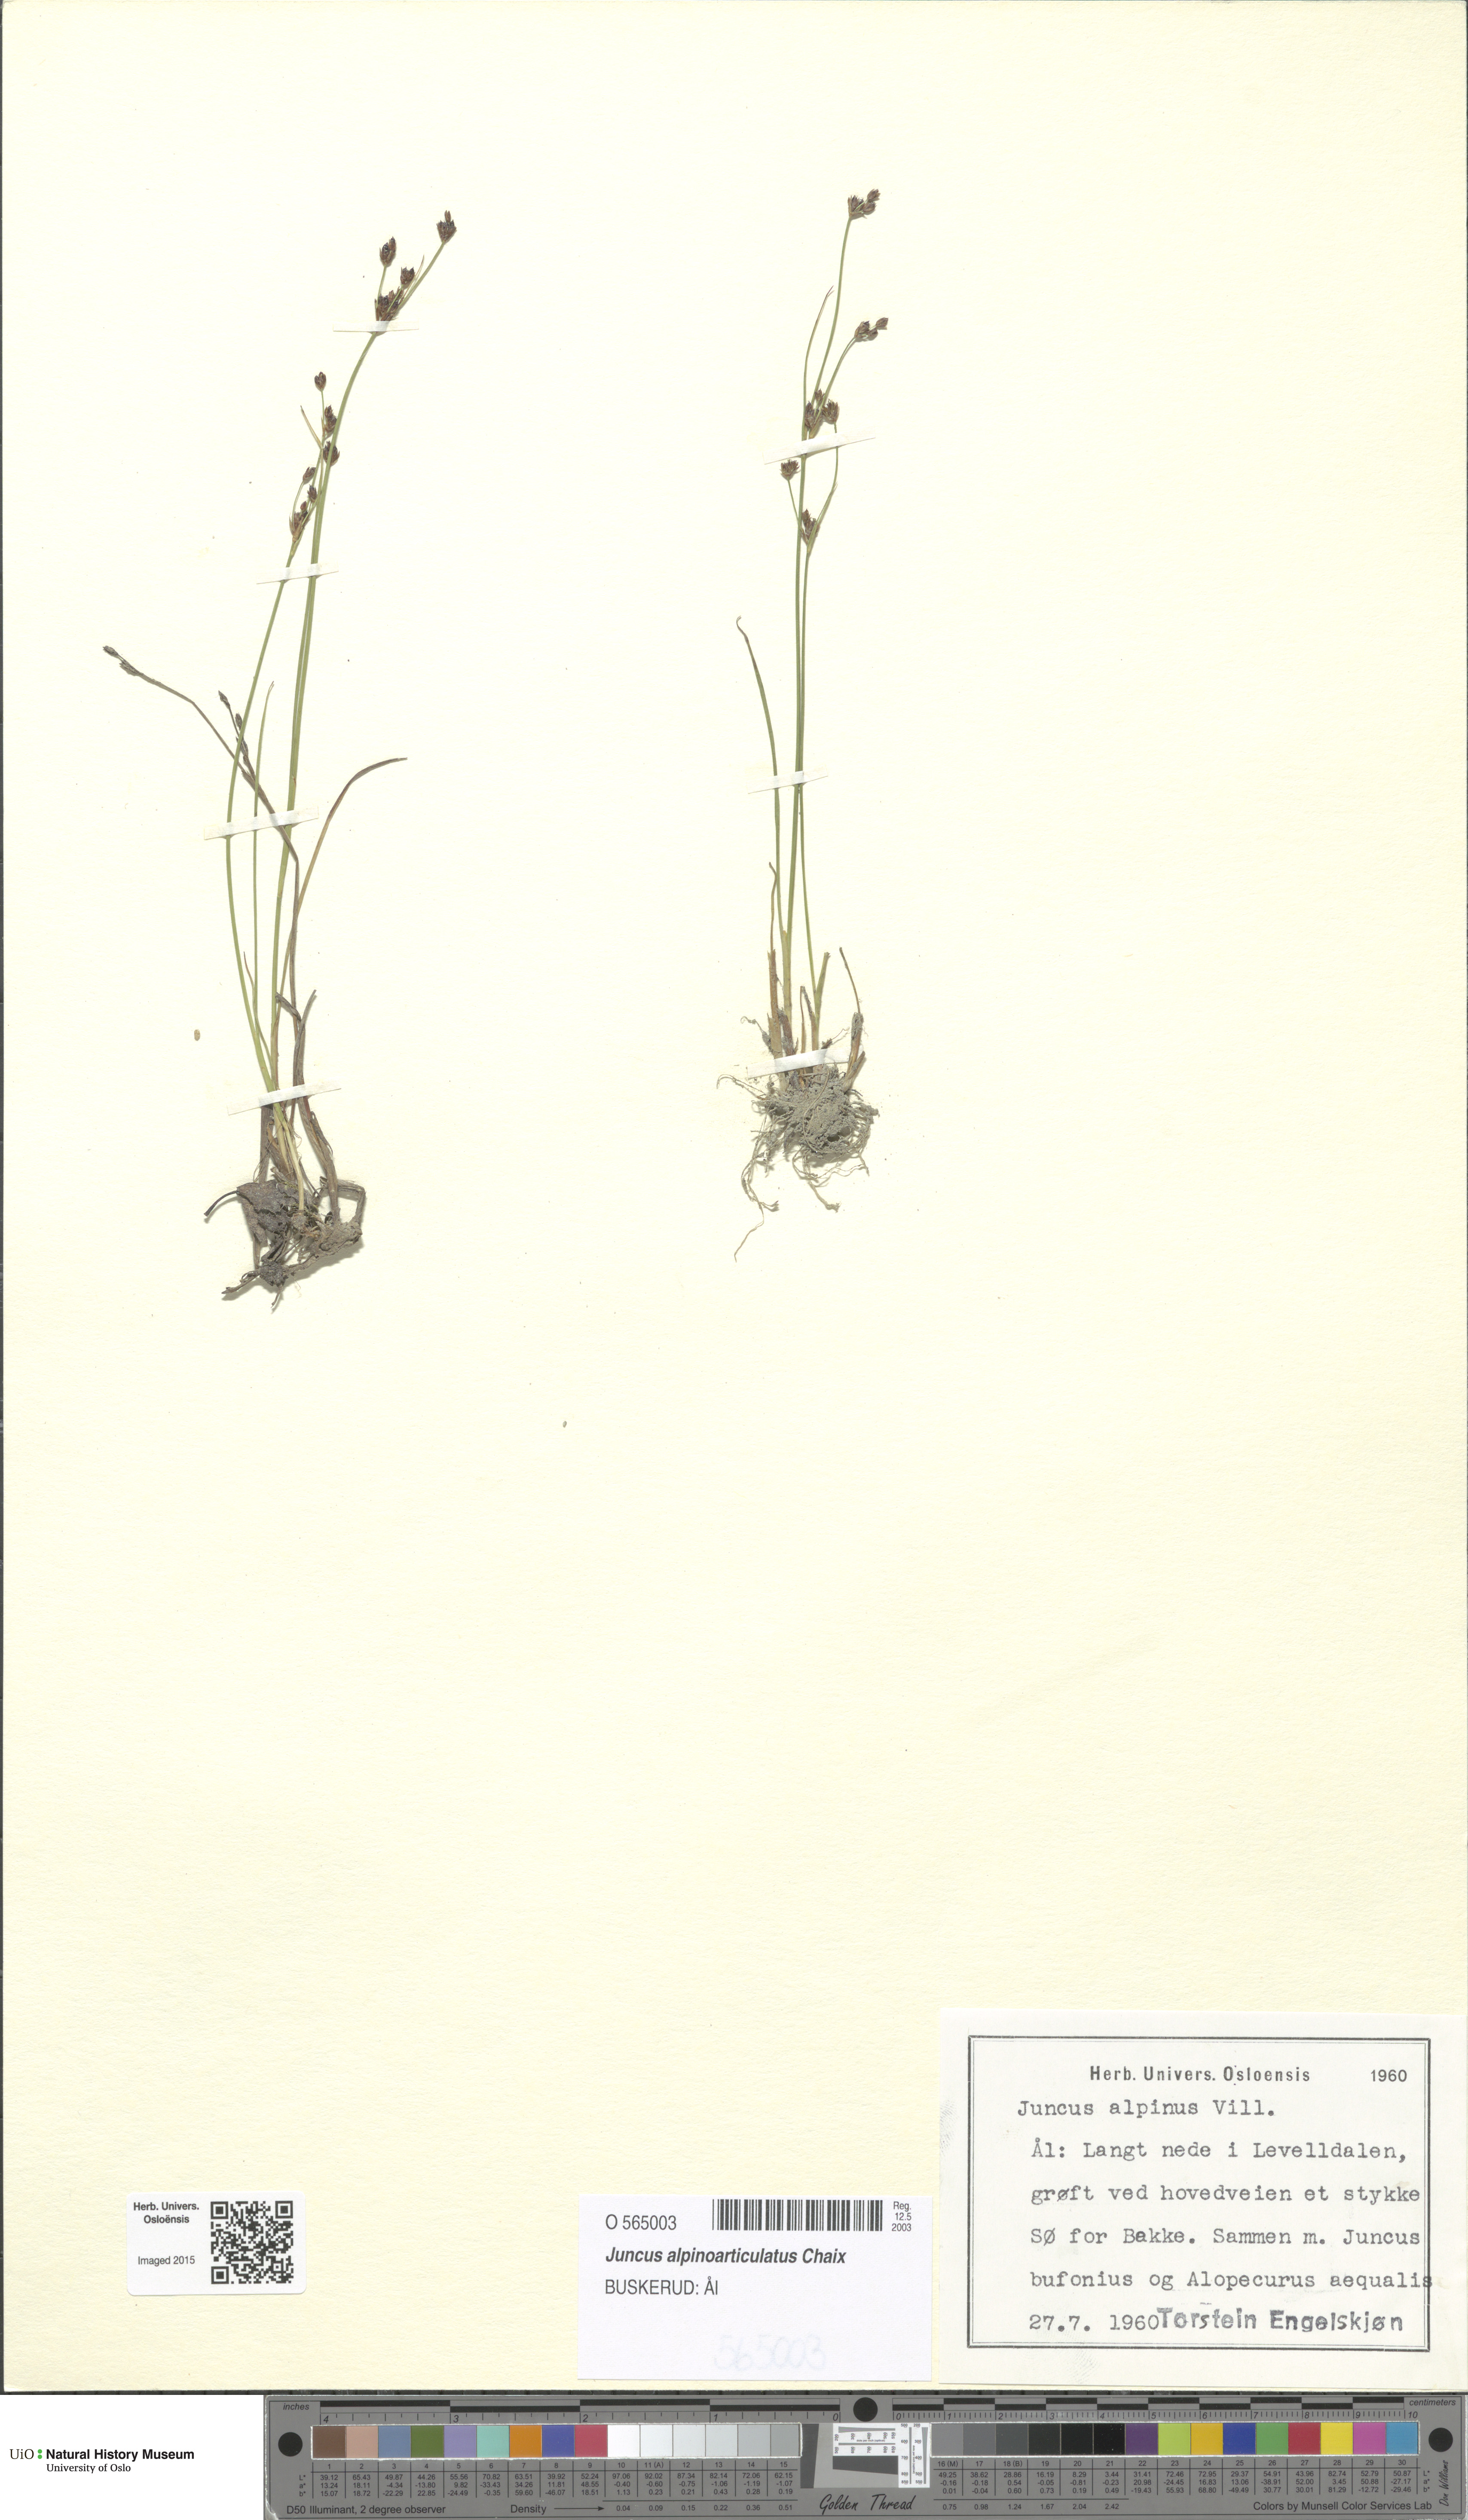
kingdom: Plantae
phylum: Tracheophyta
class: Liliopsida
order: Poales
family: Juncaceae
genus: Juncus
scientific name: Juncus alpinoarticulatus
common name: Alpine rush
